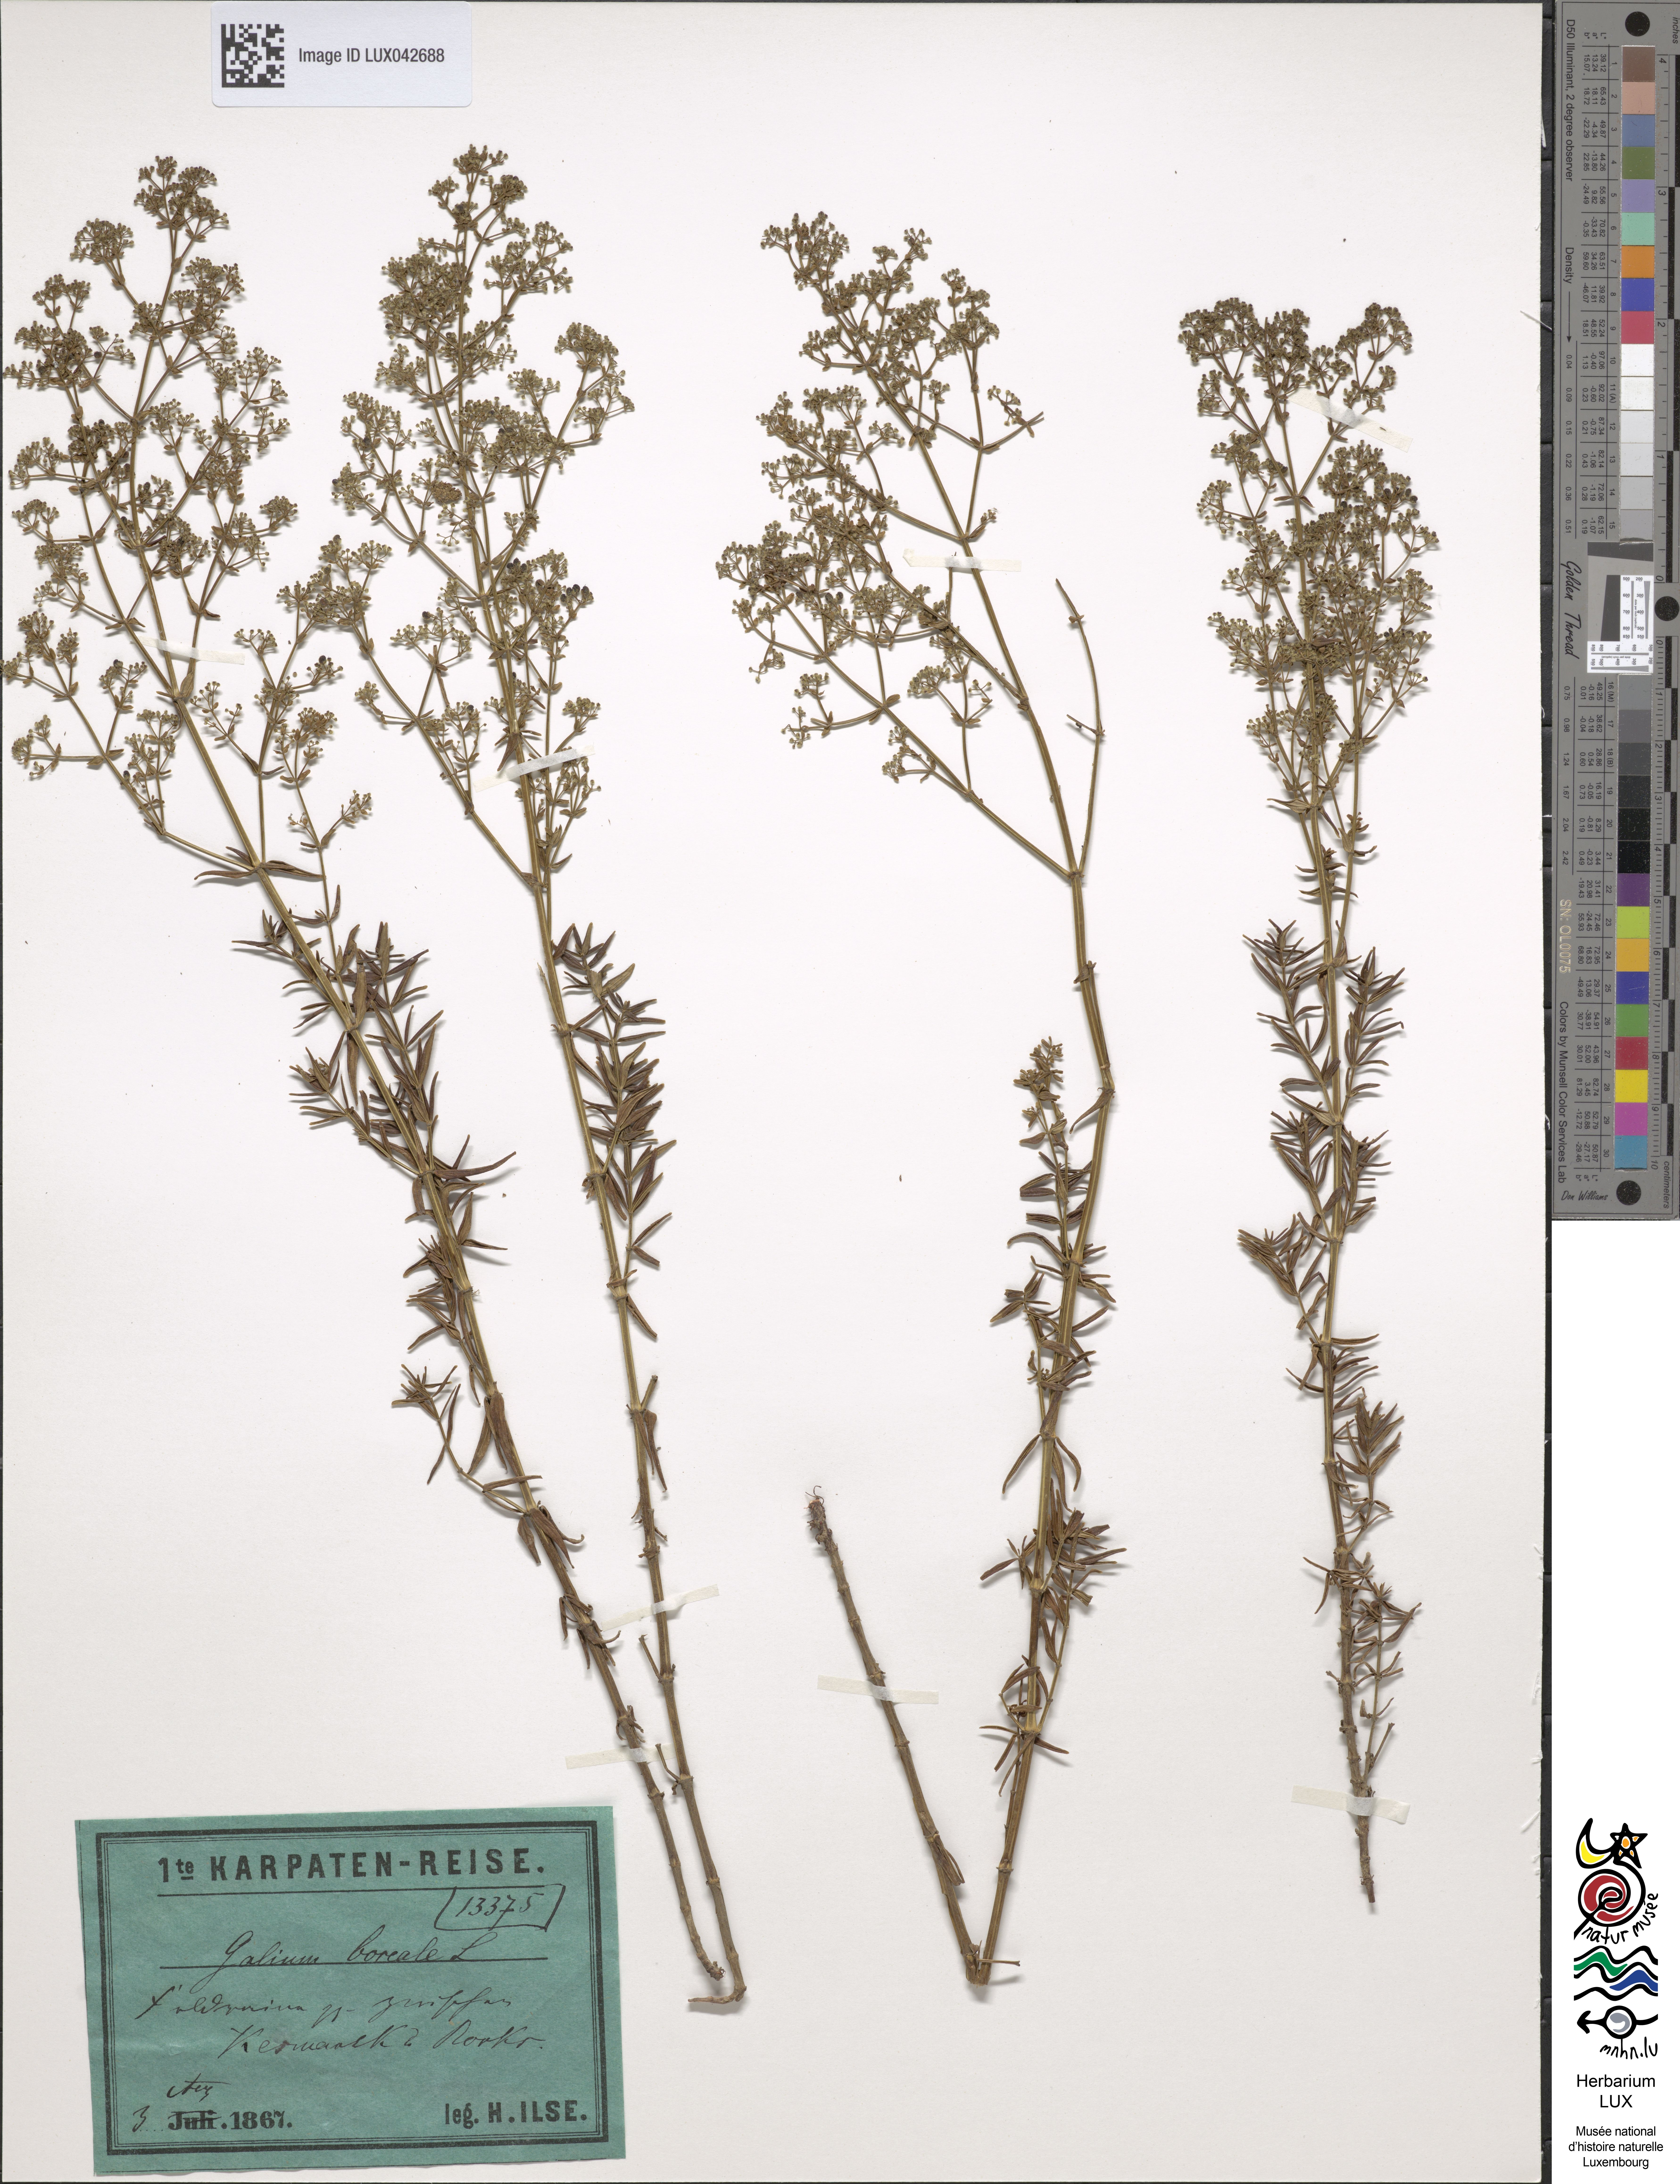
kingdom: Plantae
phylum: Tracheophyta
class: Magnoliopsida
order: Gentianales
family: Rubiaceae
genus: Galium
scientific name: Galium boreale
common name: Northern bedstraw
